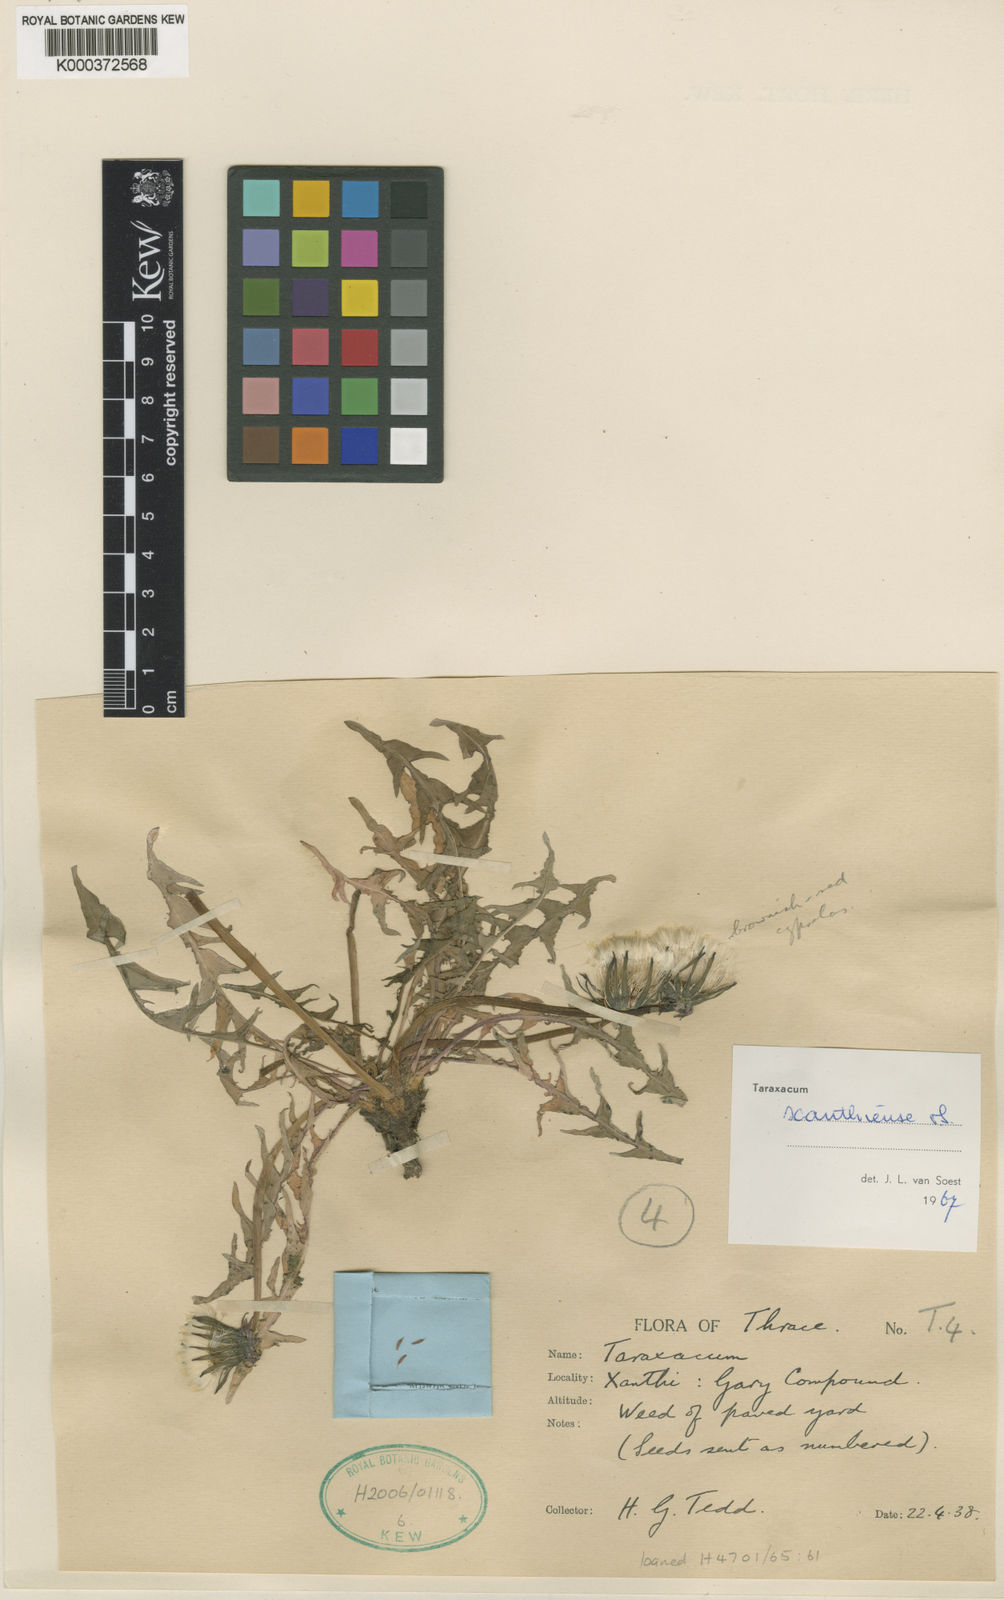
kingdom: Plantae
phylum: Tracheophyta
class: Magnoliopsida
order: Asterales
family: Asteraceae
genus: Taraxacum
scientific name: Taraxacum xanthiense
